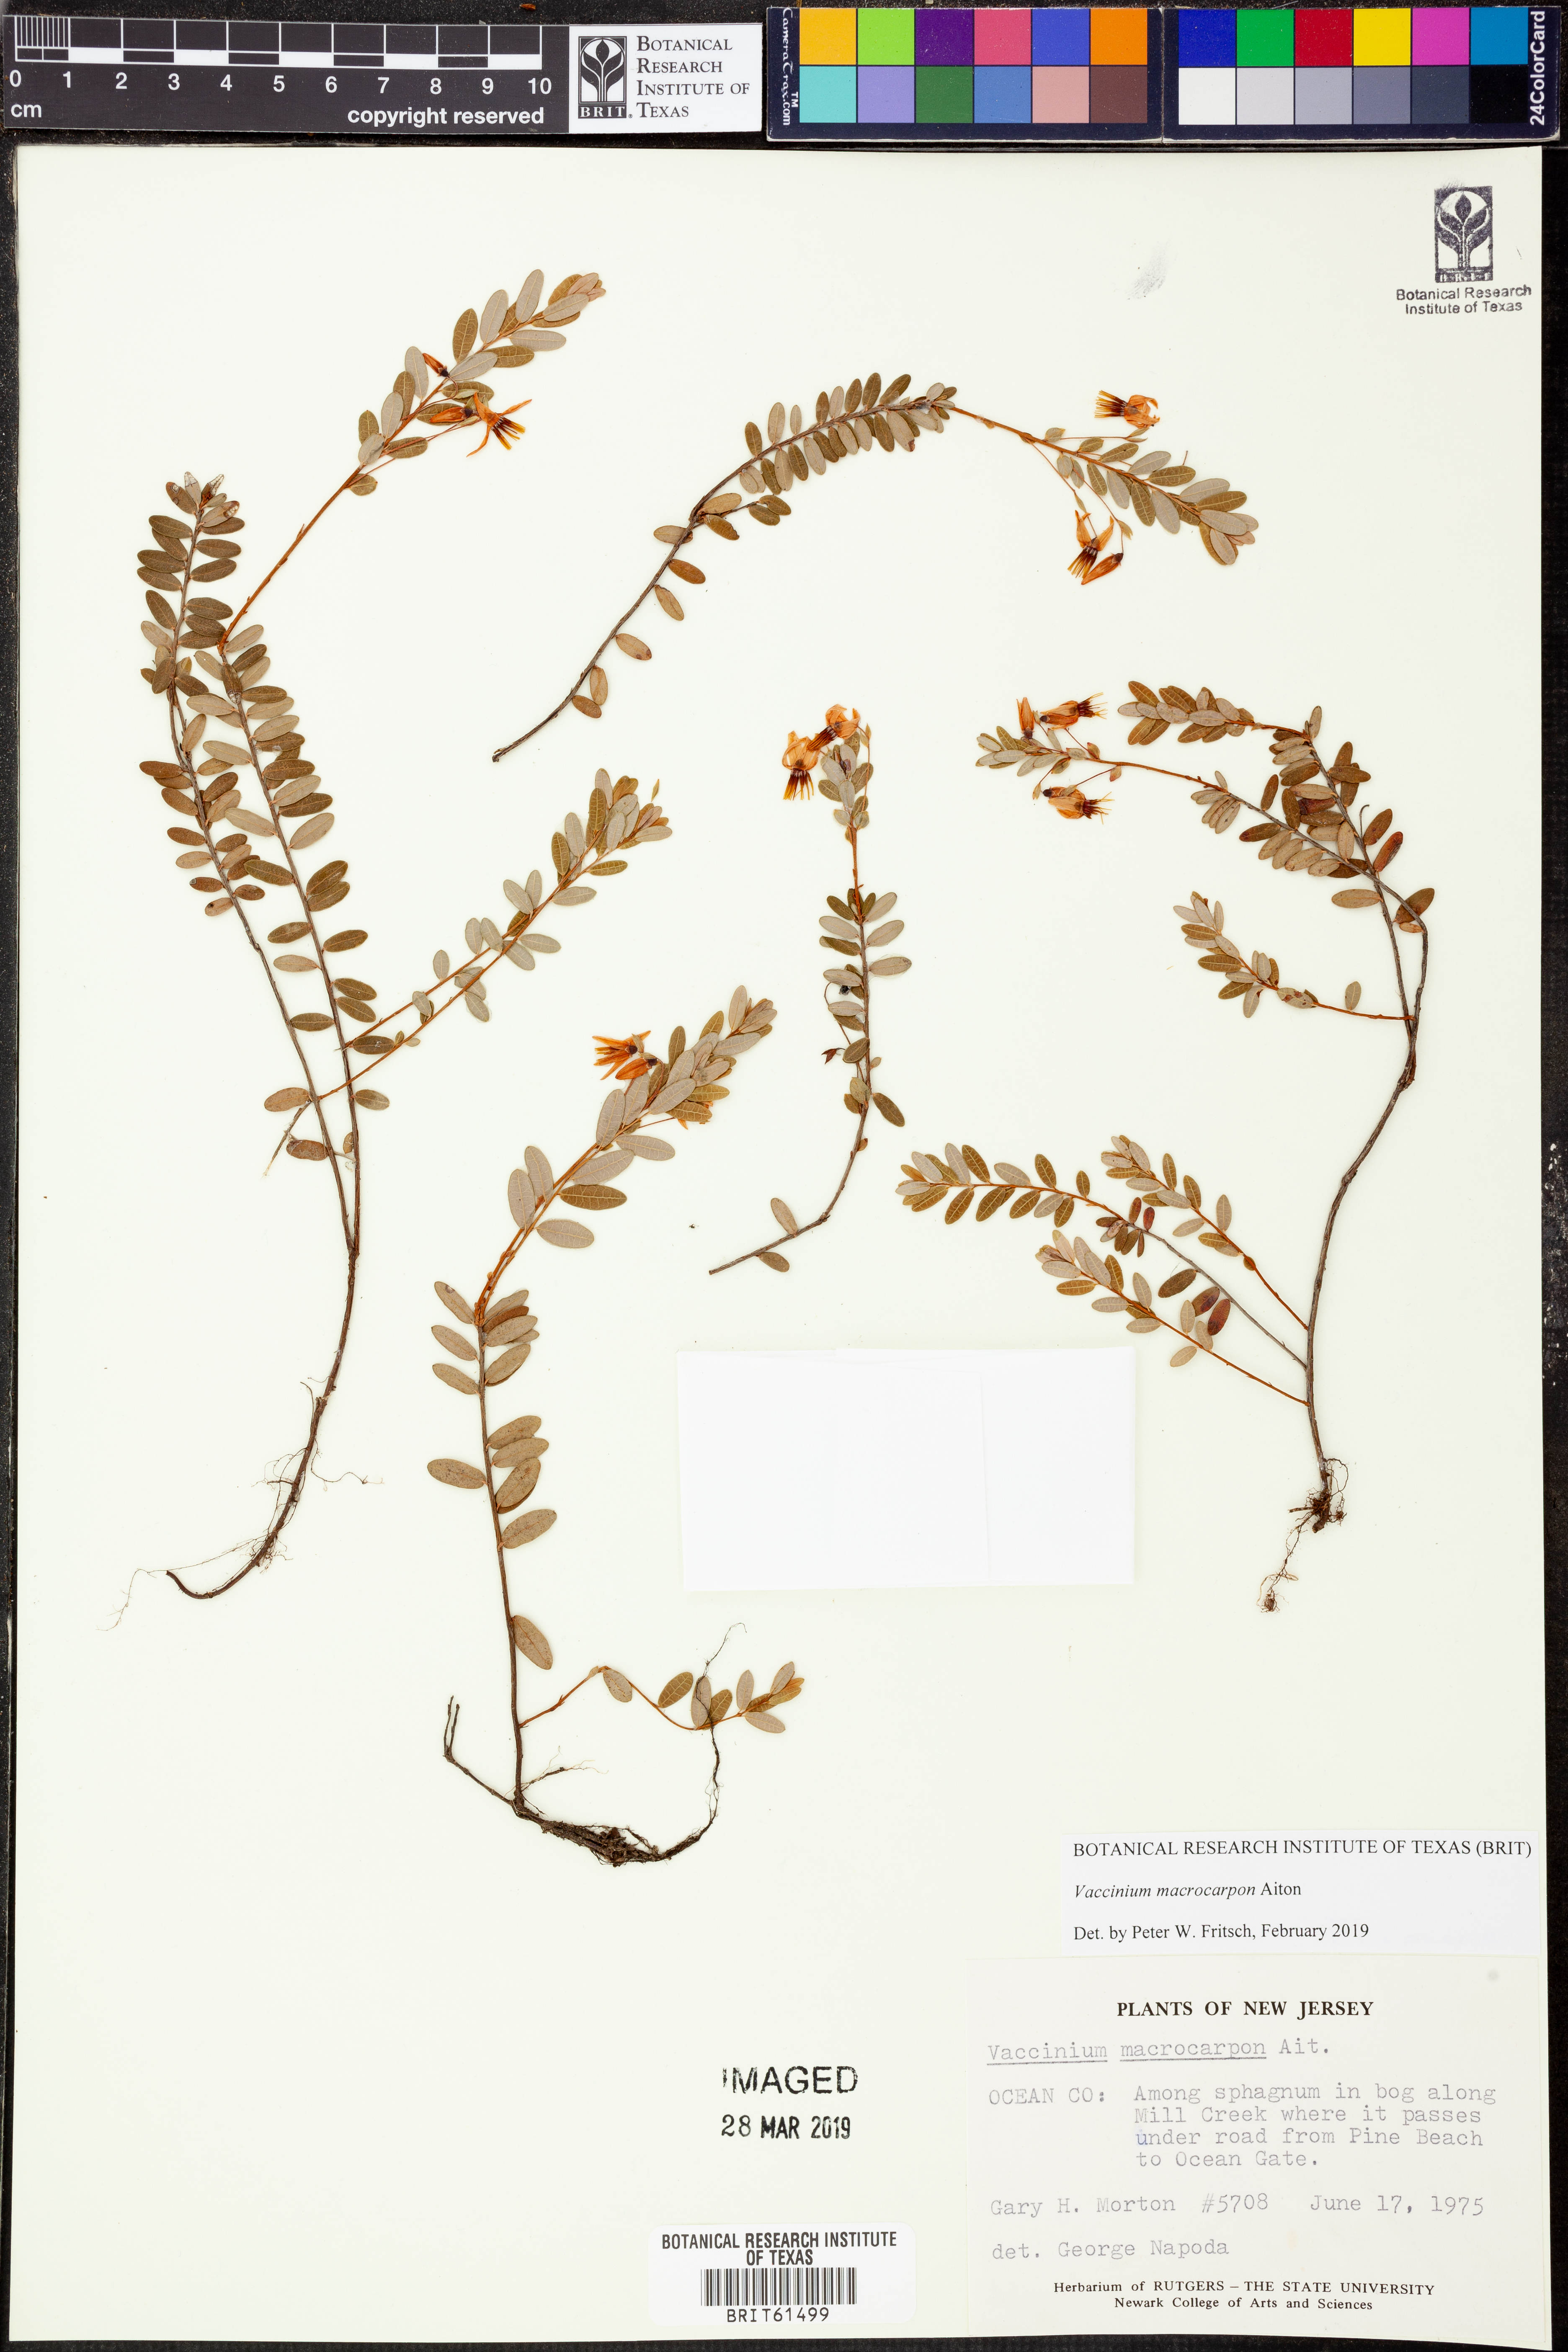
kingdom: Plantae
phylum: Tracheophyta
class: Magnoliopsida
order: Ericales
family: Ericaceae
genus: Vaccinium
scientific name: Vaccinium macrocarpon
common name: American cranberry
